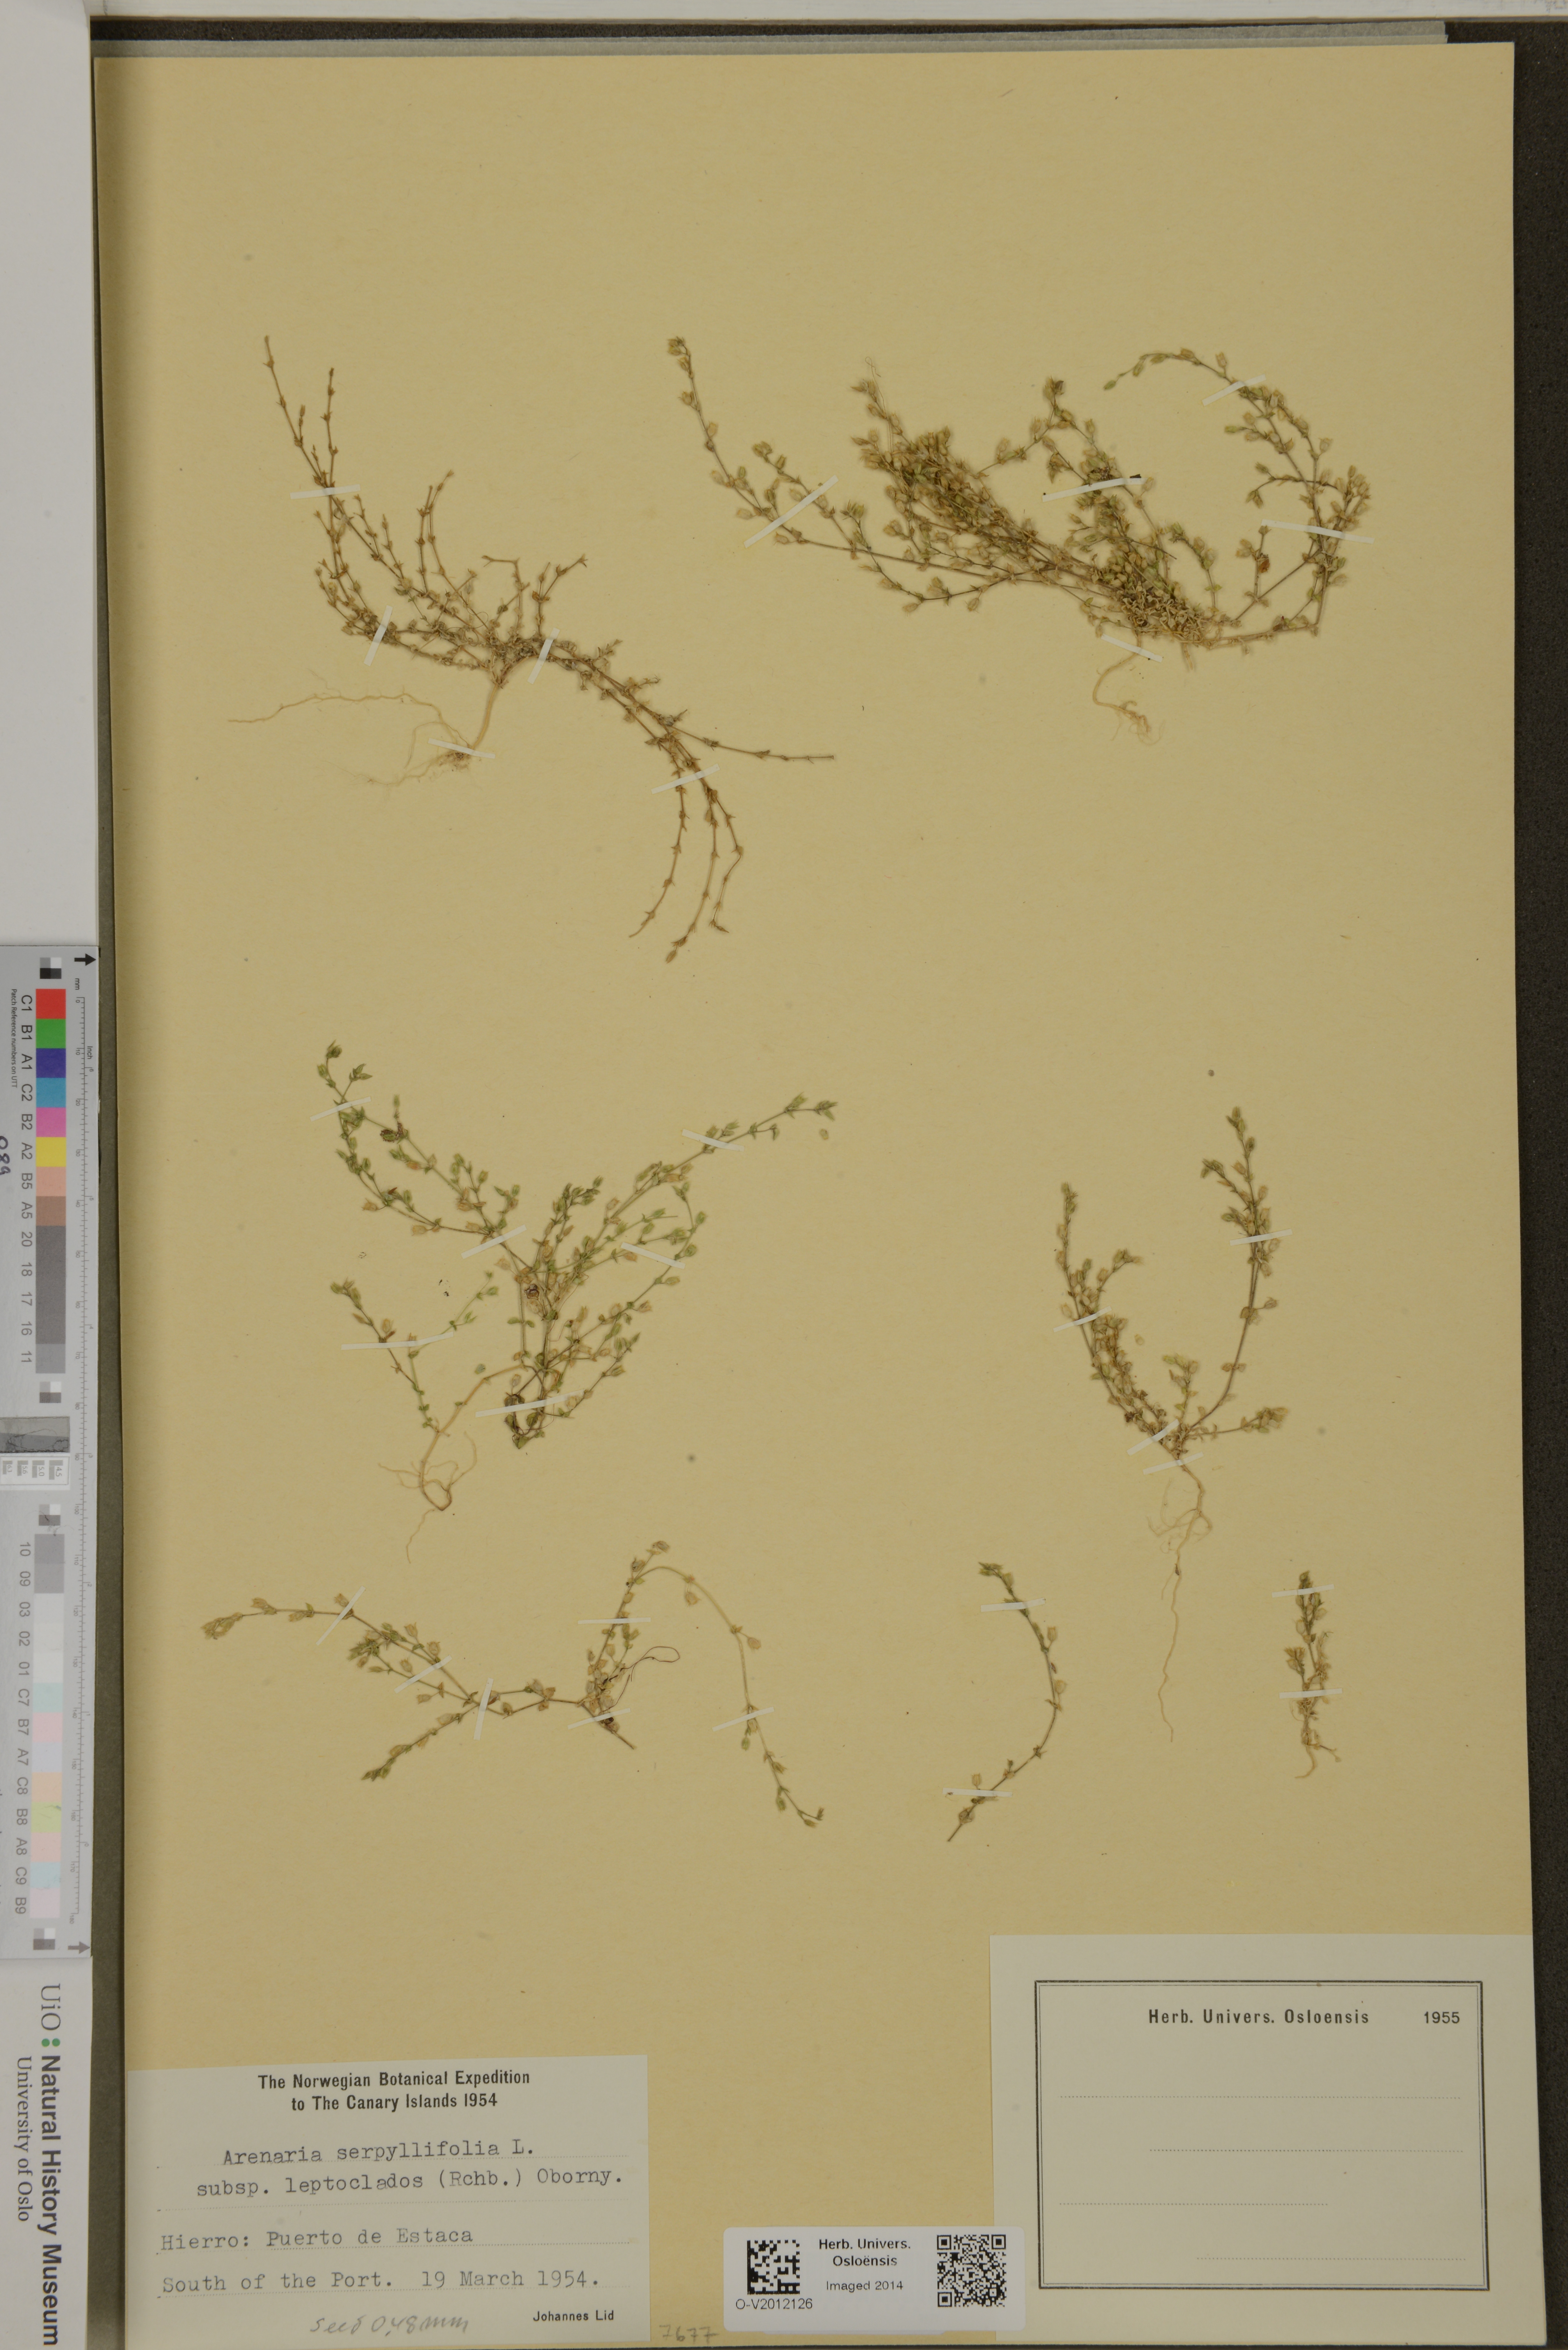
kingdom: Plantae
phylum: Tracheophyta
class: Magnoliopsida
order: Caryophyllales
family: Caryophyllaceae
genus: Arenaria
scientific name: Arenaria leptoclados
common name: Thyme-leaved sandwort
